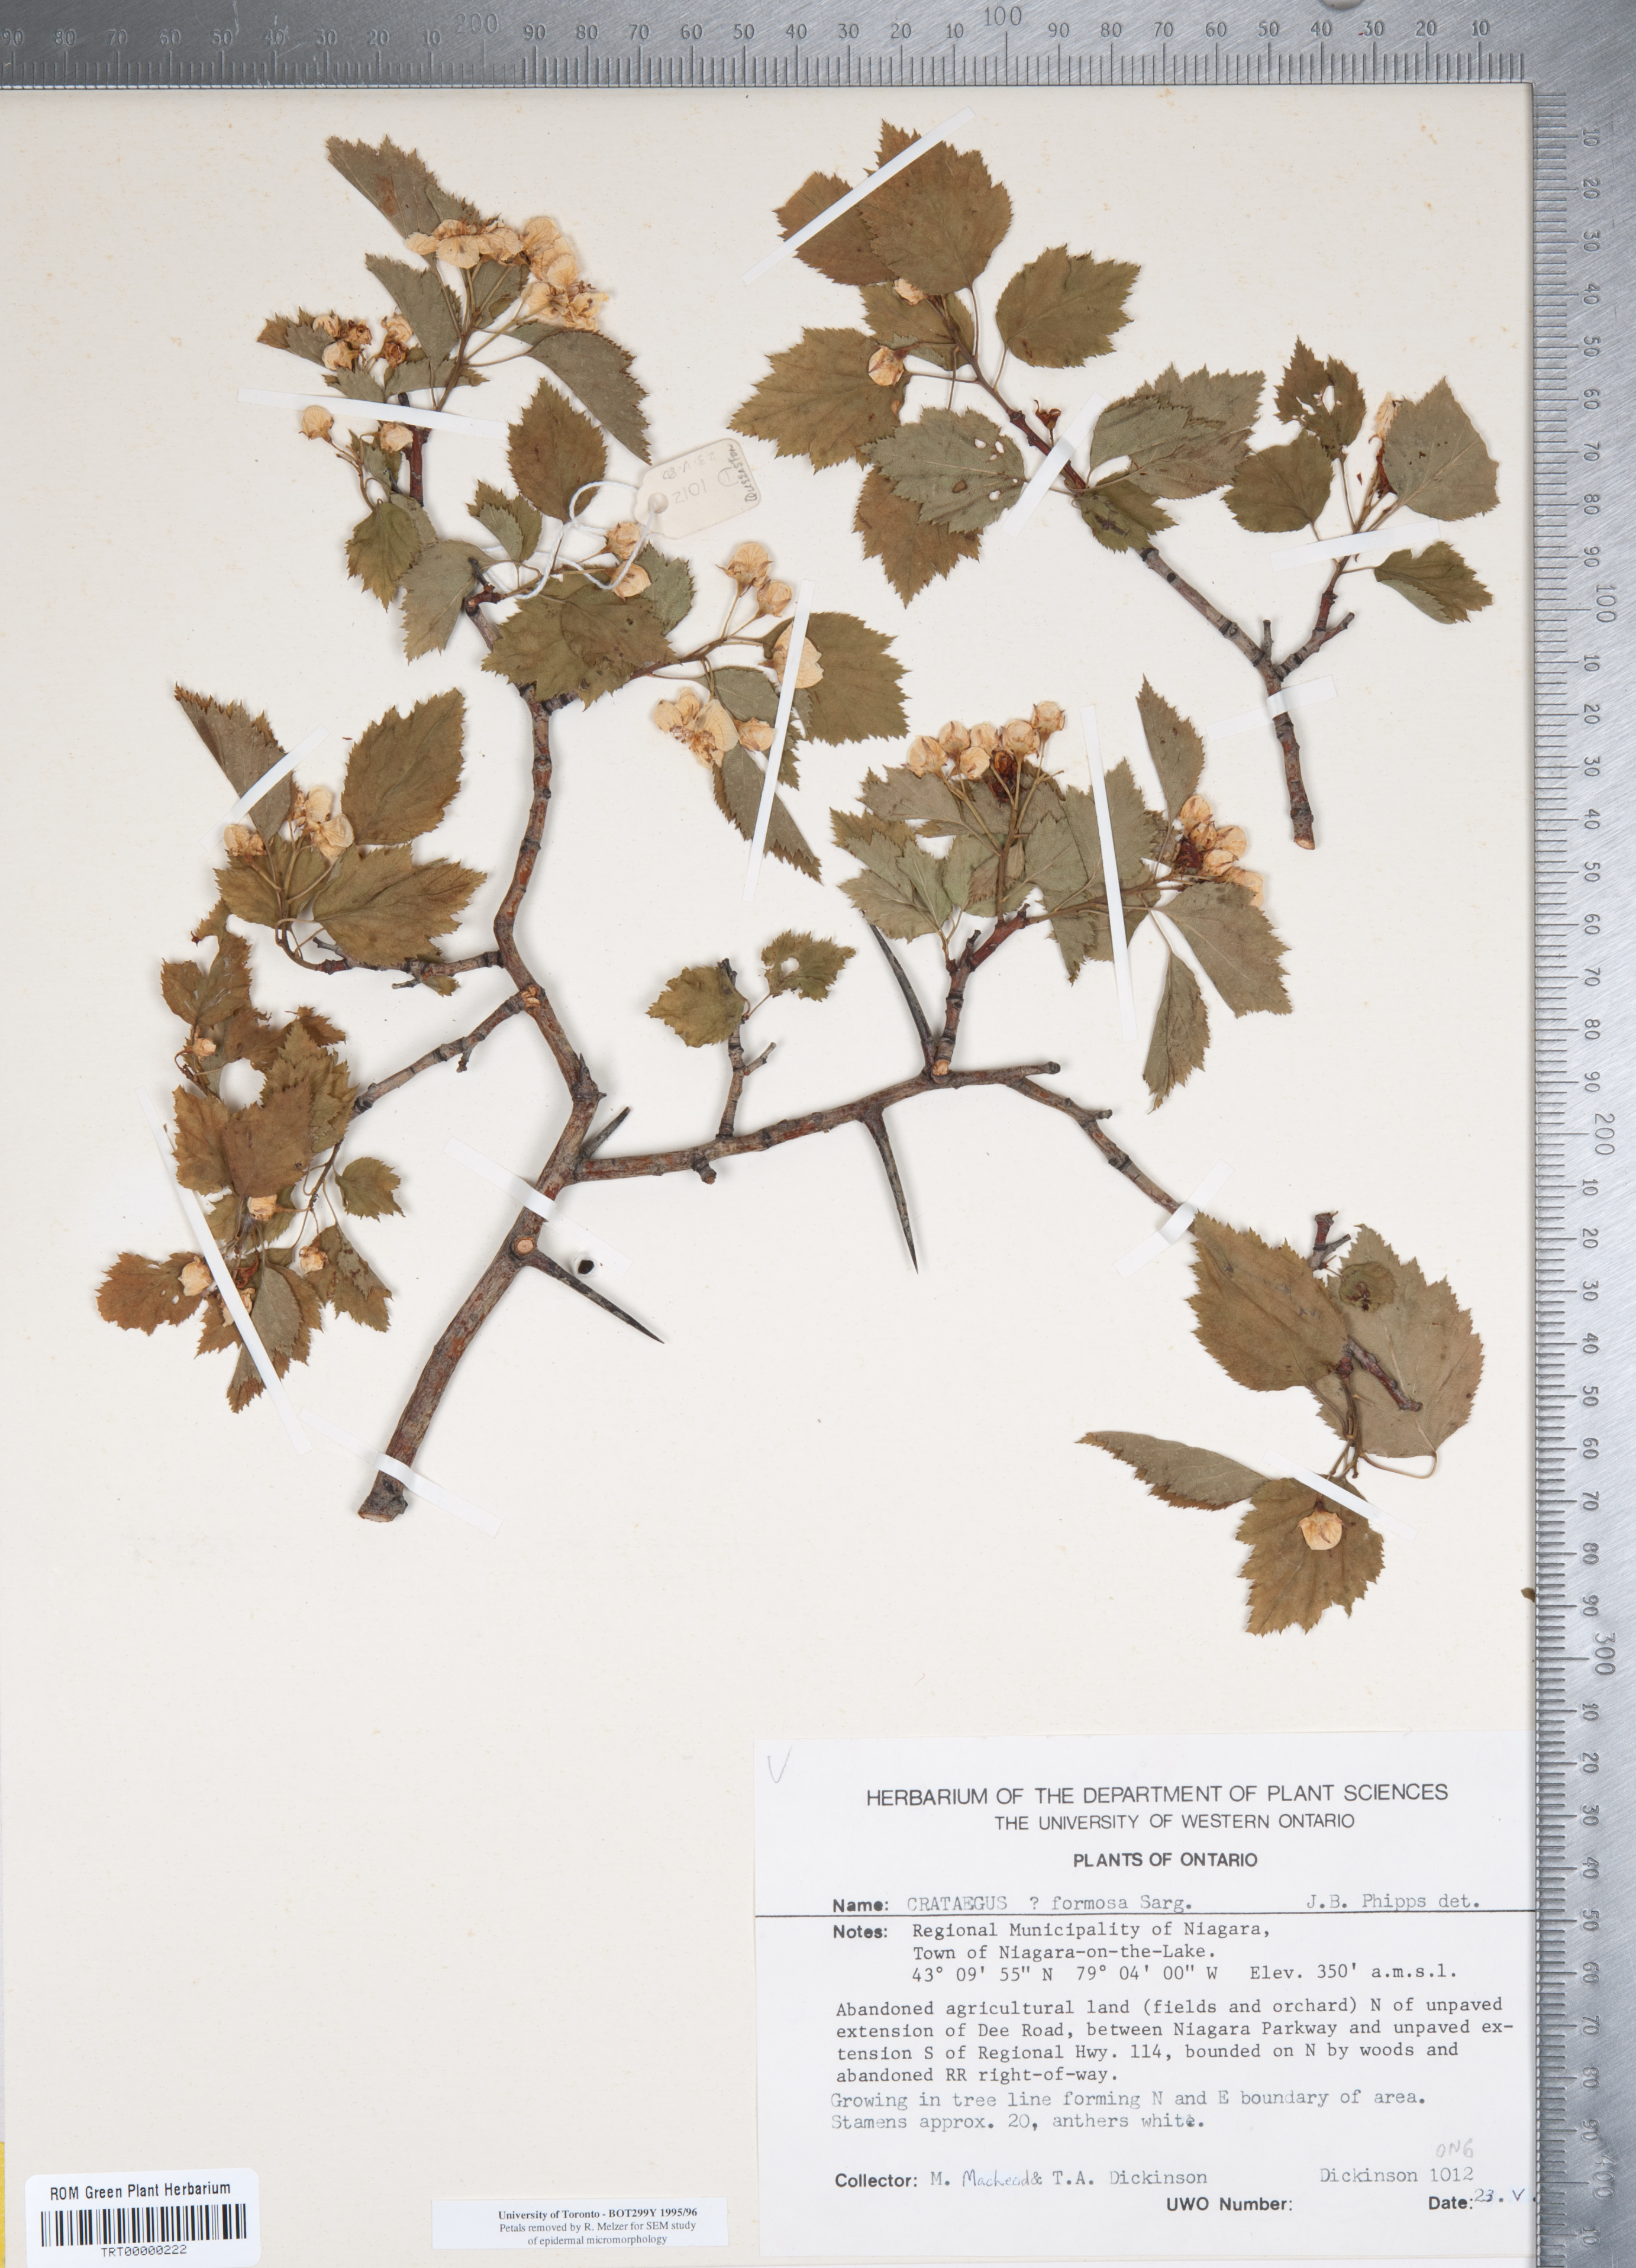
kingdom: Plantae
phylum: Tracheophyta
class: Magnoliopsida
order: Rosales
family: Rosaceae
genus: Crataegus
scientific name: Crataegus pruinosa
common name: Waxy-fruit hawthorn
